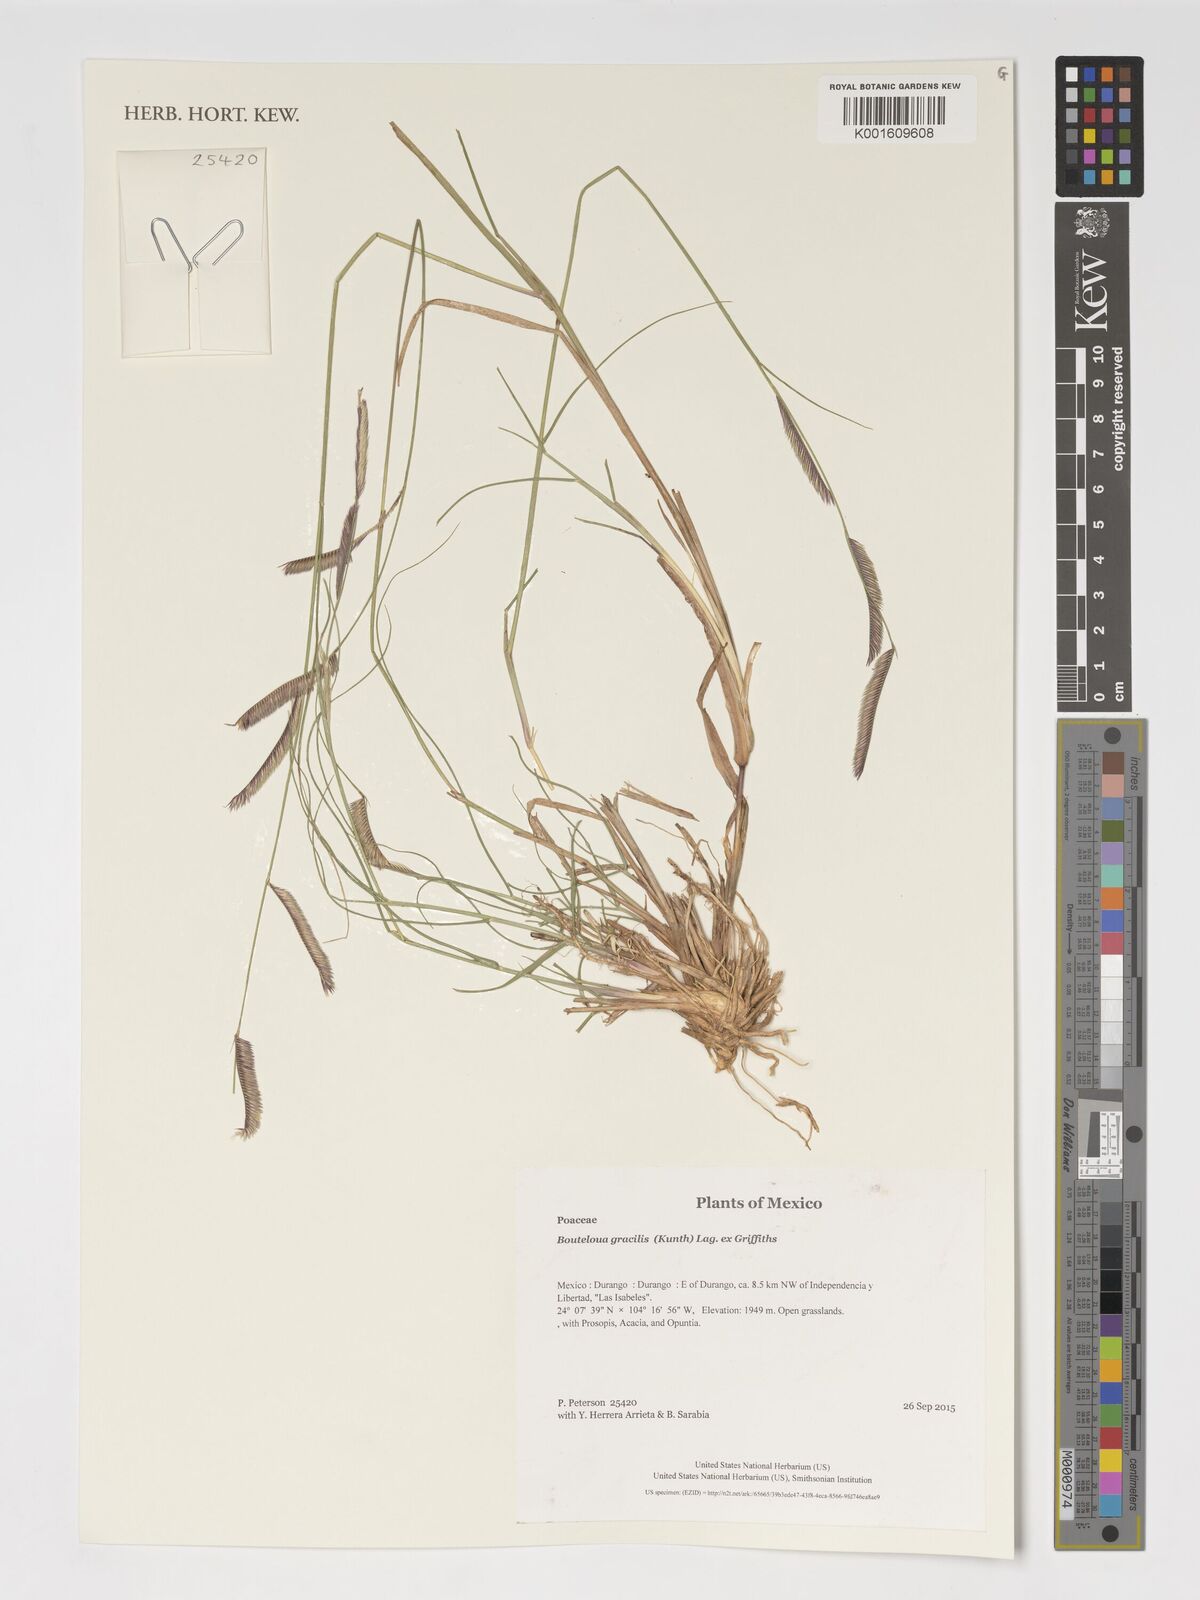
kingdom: Plantae
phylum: Tracheophyta
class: Liliopsida
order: Poales
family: Poaceae
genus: Bouteloua
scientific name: Bouteloua gracilis
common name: Blue grama
